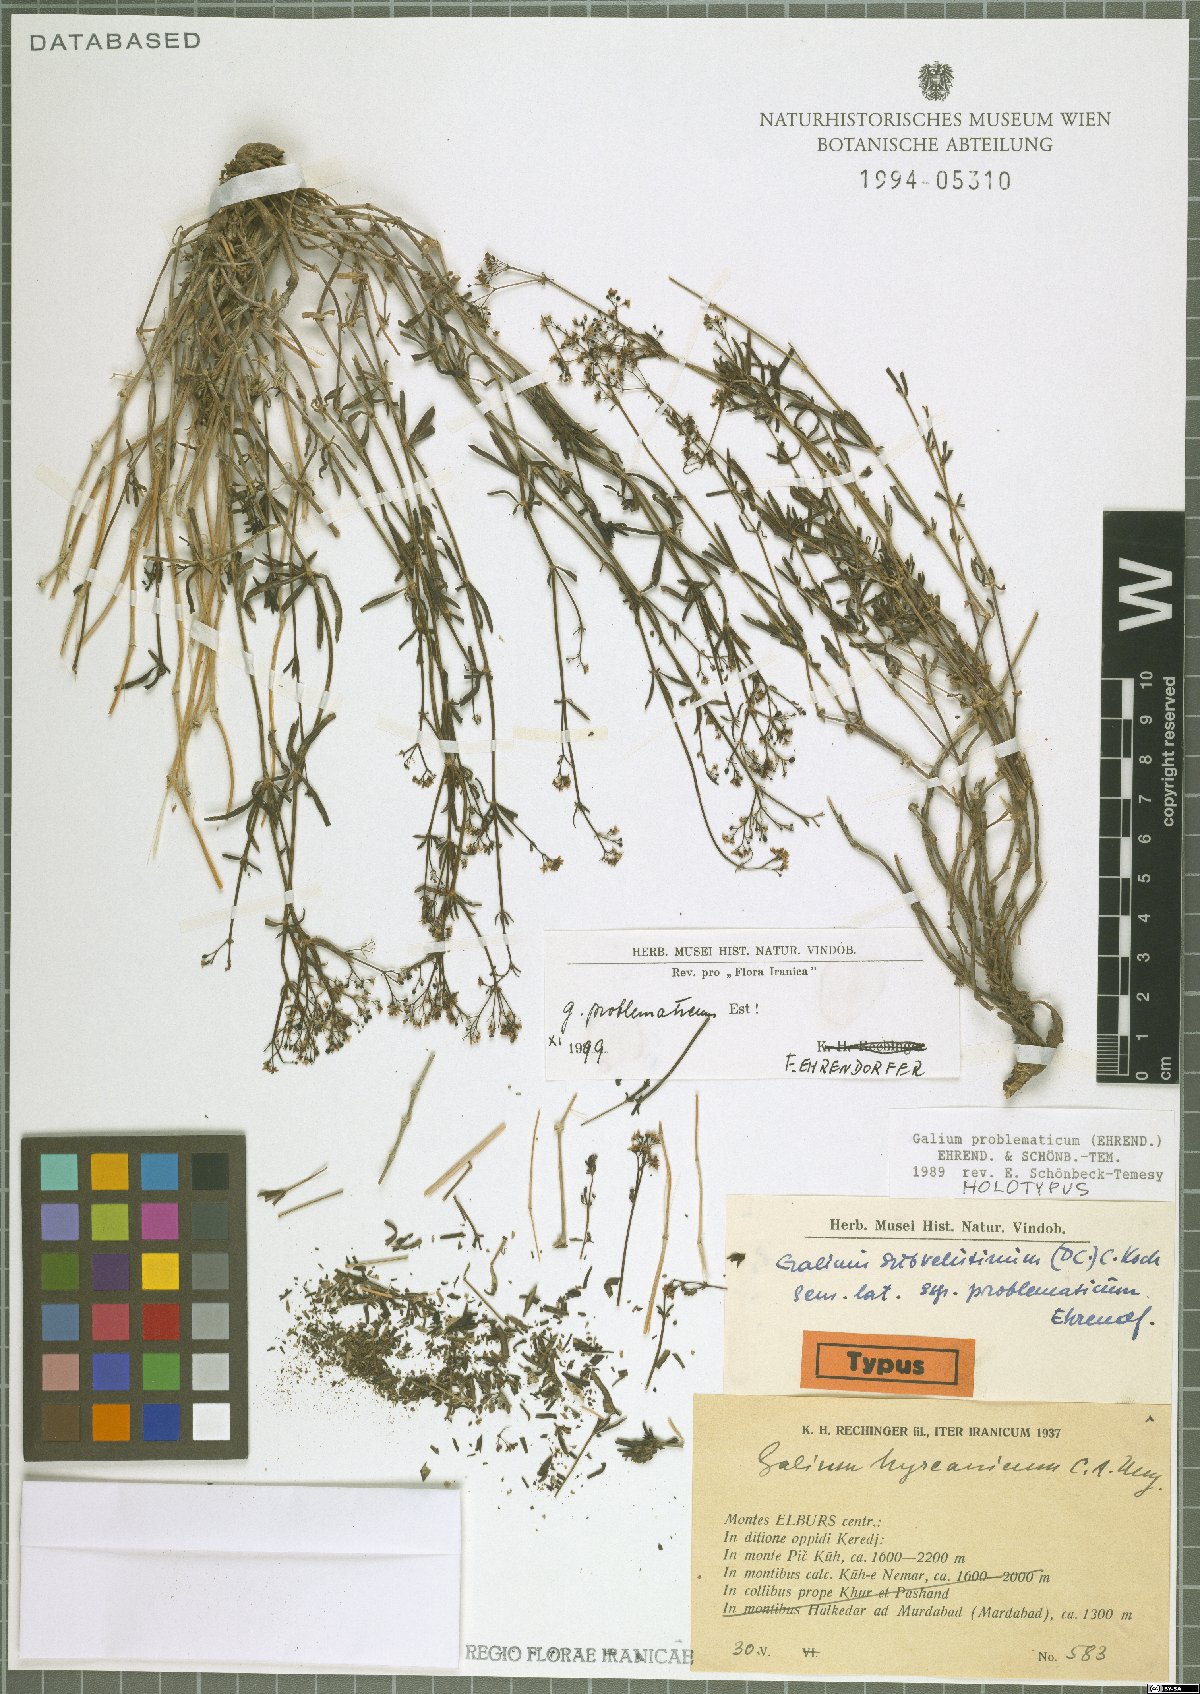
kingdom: Plantae
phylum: Tracheophyta
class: Magnoliopsida
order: Gentianales
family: Rubiaceae
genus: Galium
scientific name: Galium problematicum
